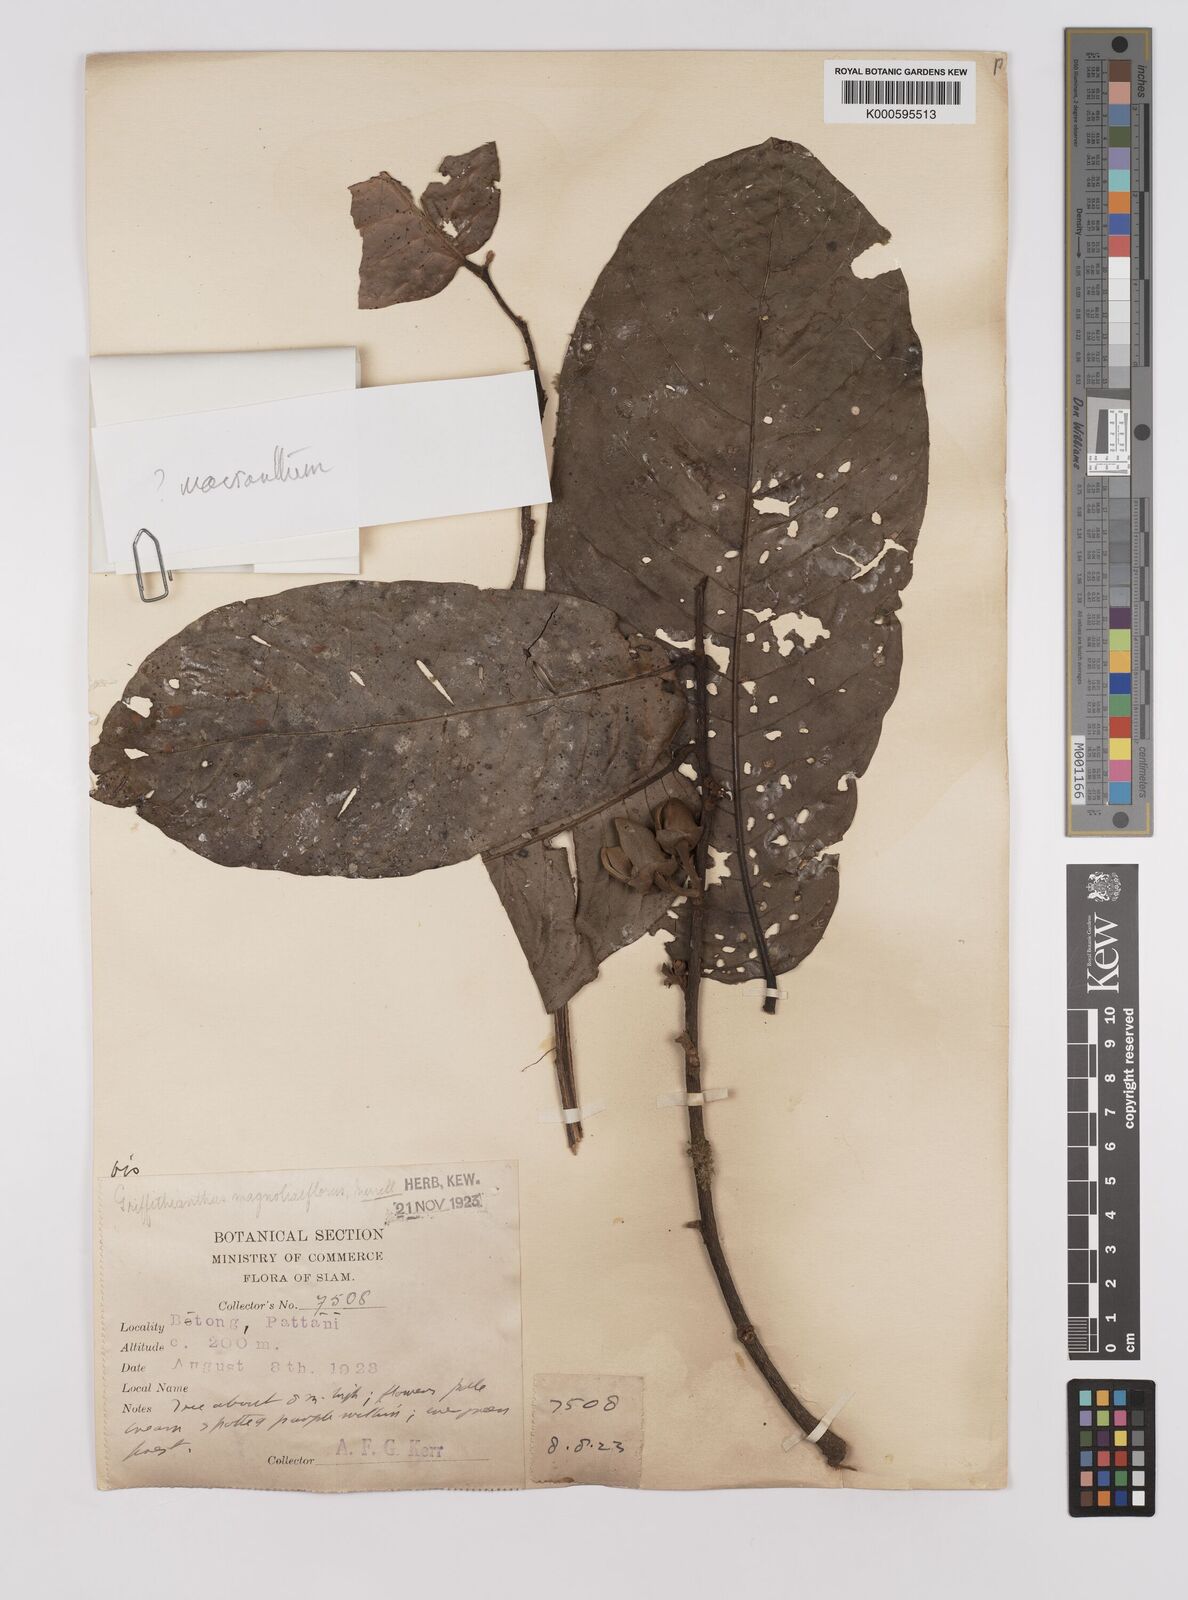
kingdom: Plantae
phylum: Tracheophyta
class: Magnoliopsida
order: Magnoliales
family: Annonaceae
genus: Enicosanthum
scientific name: Enicosanthum
